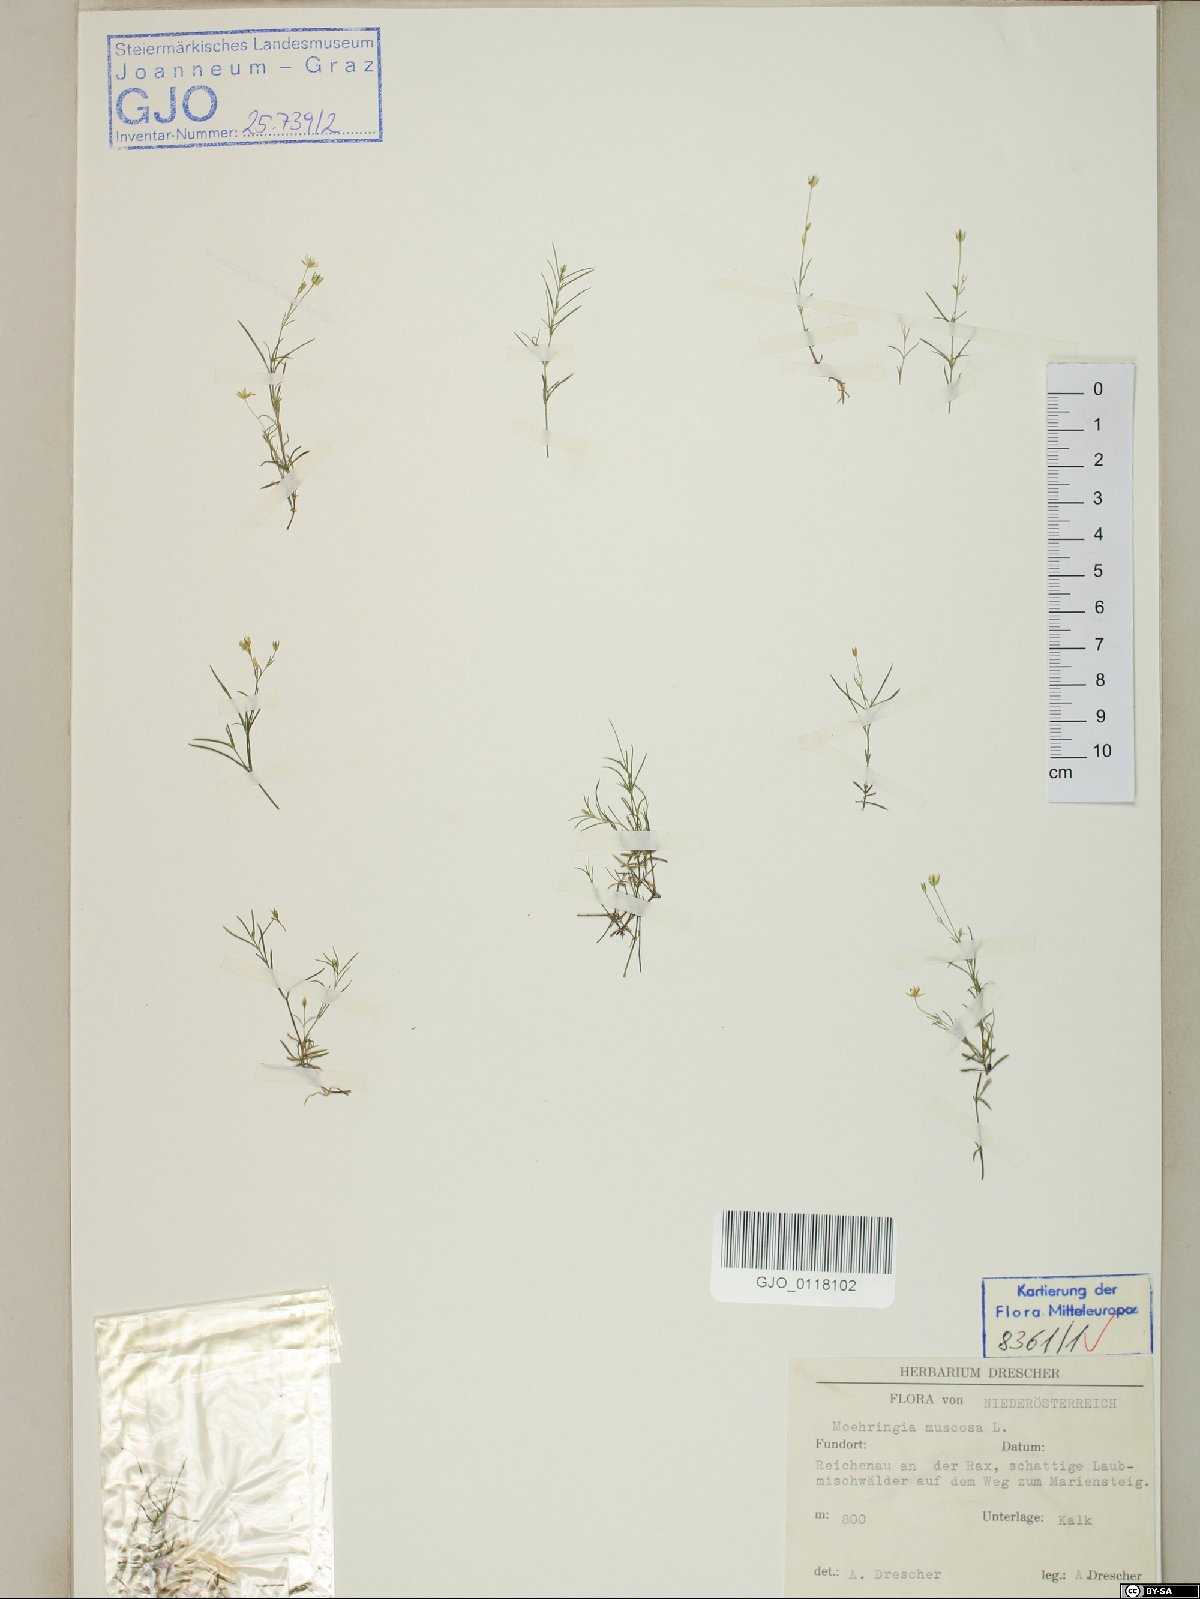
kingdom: Plantae
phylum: Tracheophyta
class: Magnoliopsida
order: Caryophyllales
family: Caryophyllaceae
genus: Moehringia
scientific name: Moehringia muscosa
